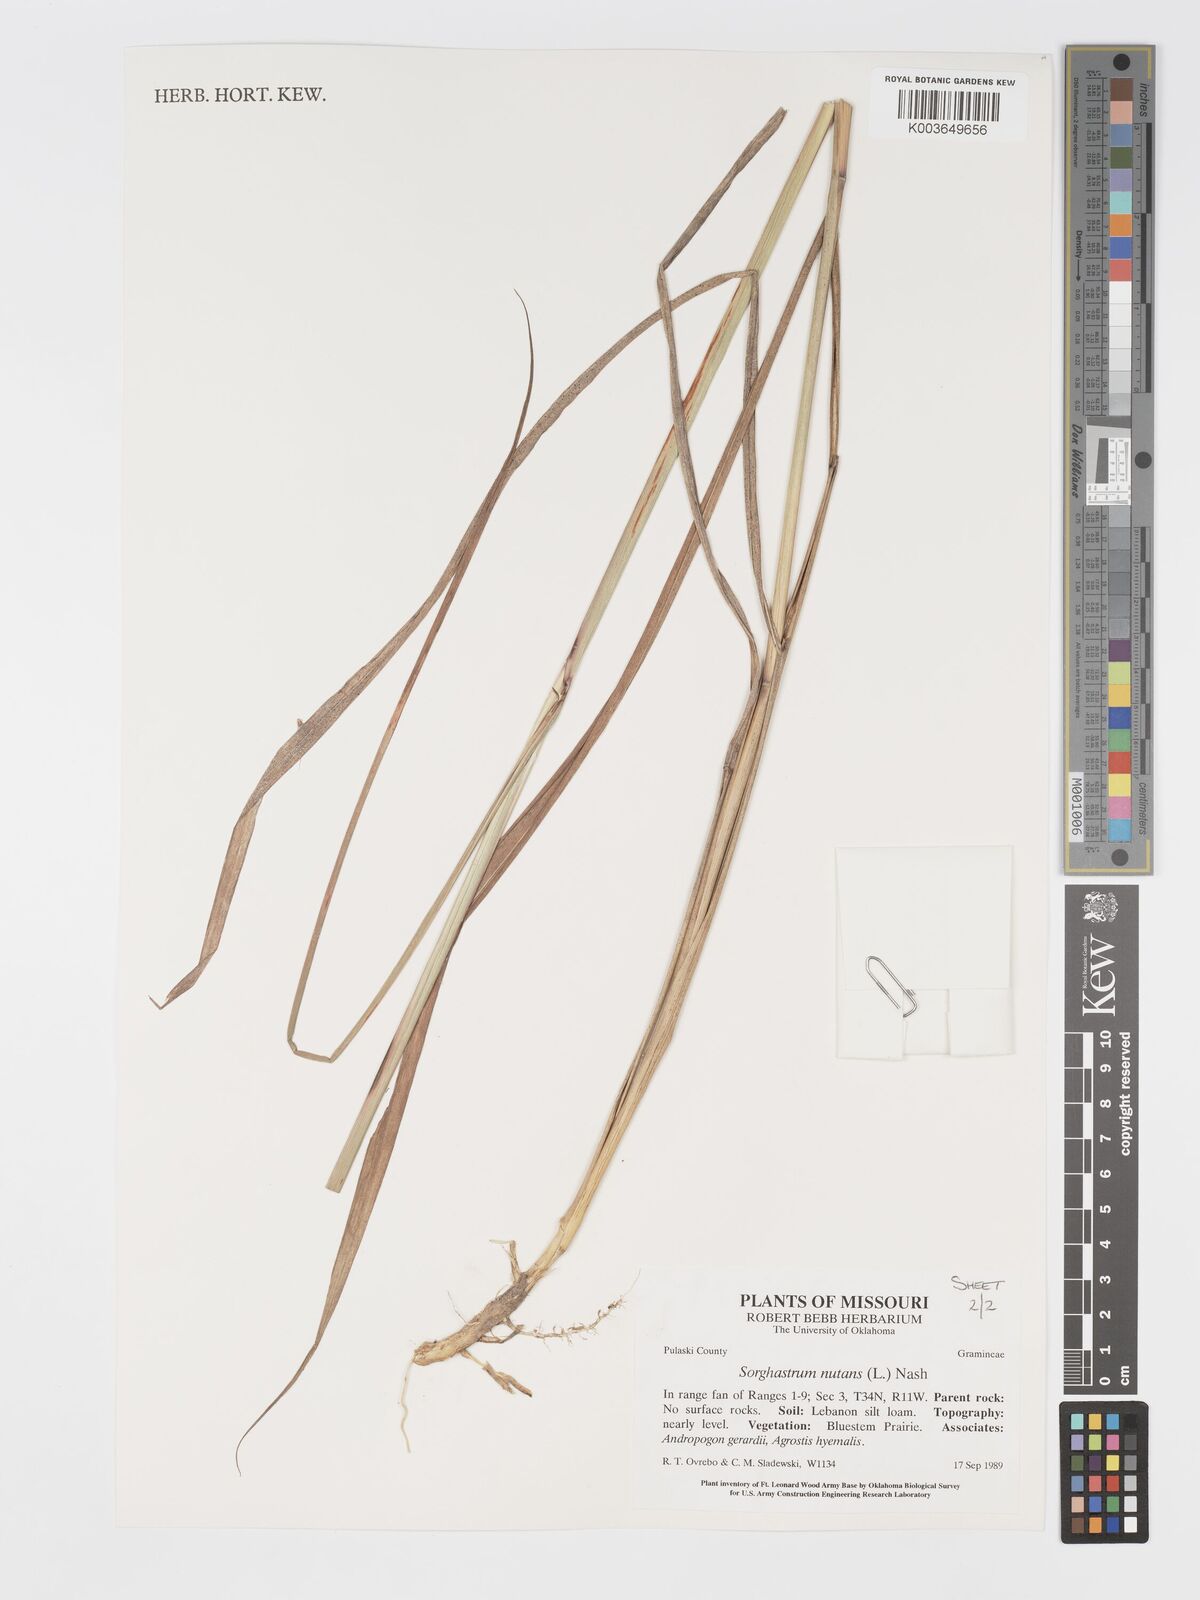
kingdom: Plantae
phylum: Tracheophyta
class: Liliopsida
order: Poales
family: Poaceae
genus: Sorghastrum
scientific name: Sorghastrum nutans
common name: Indian grass
